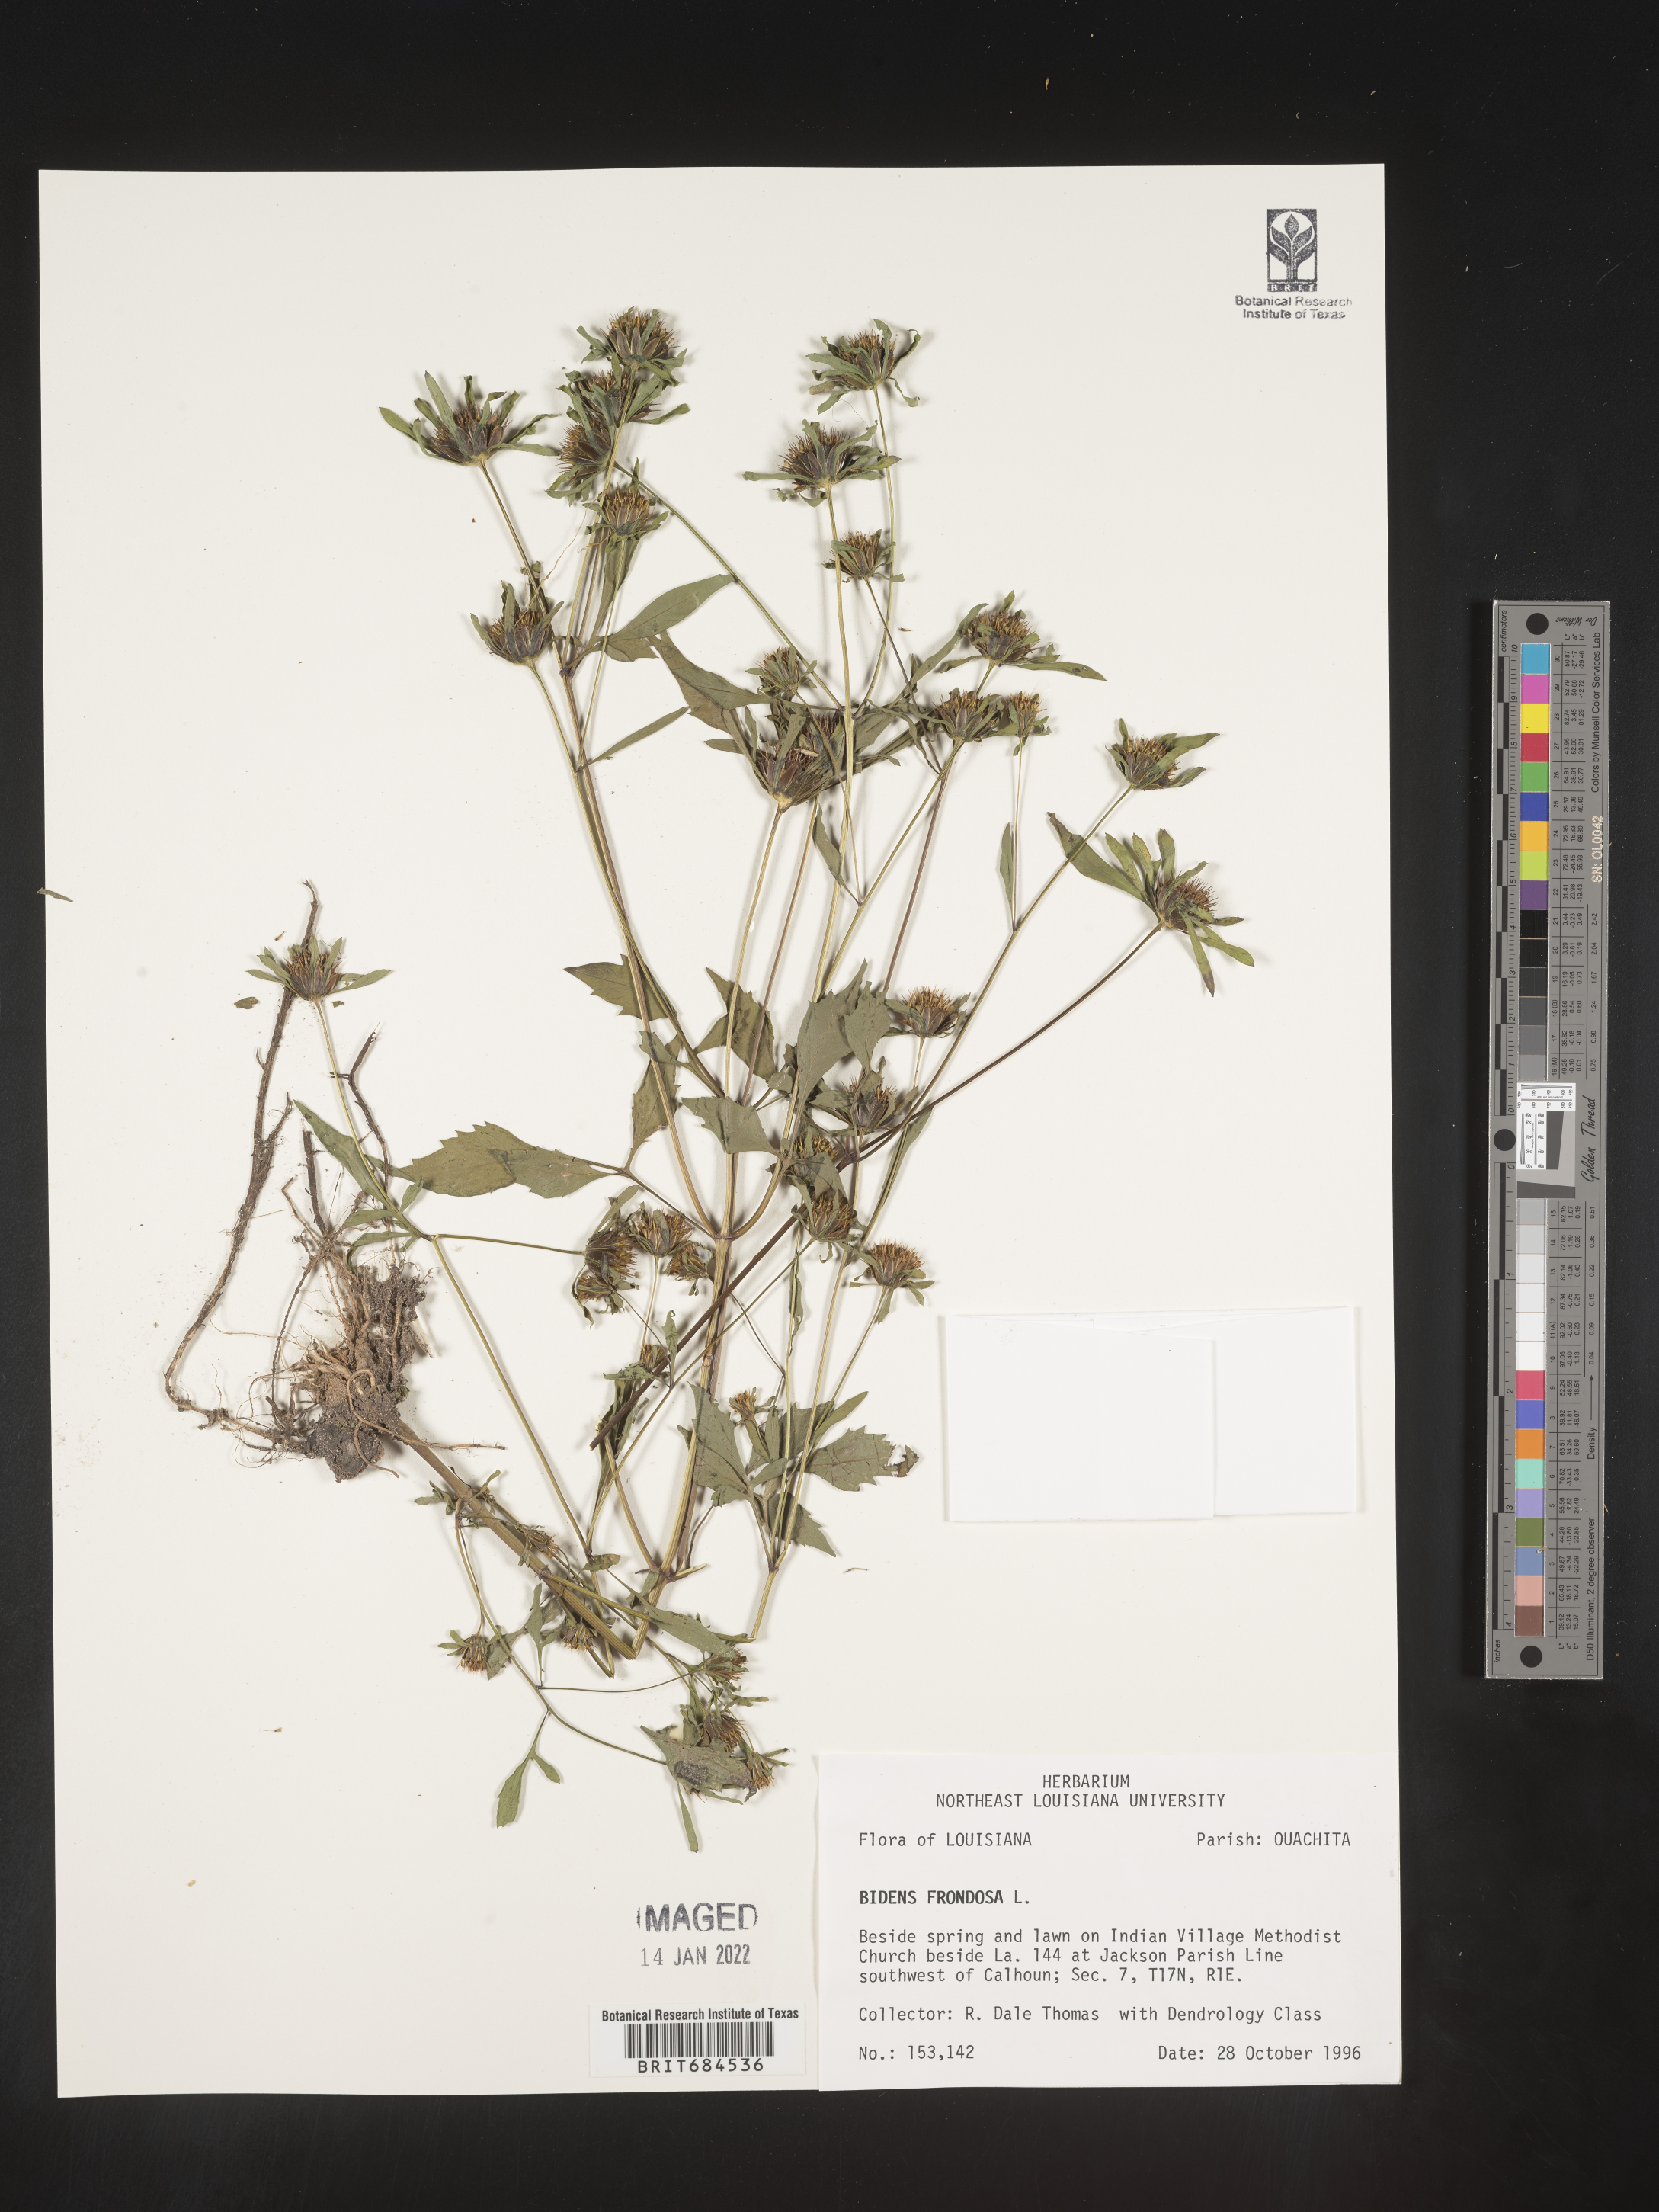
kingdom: Plantae
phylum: Tracheophyta
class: Magnoliopsida
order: Asterales
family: Asteraceae
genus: Bidens
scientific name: Bidens frondosa
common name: Beggarticks
